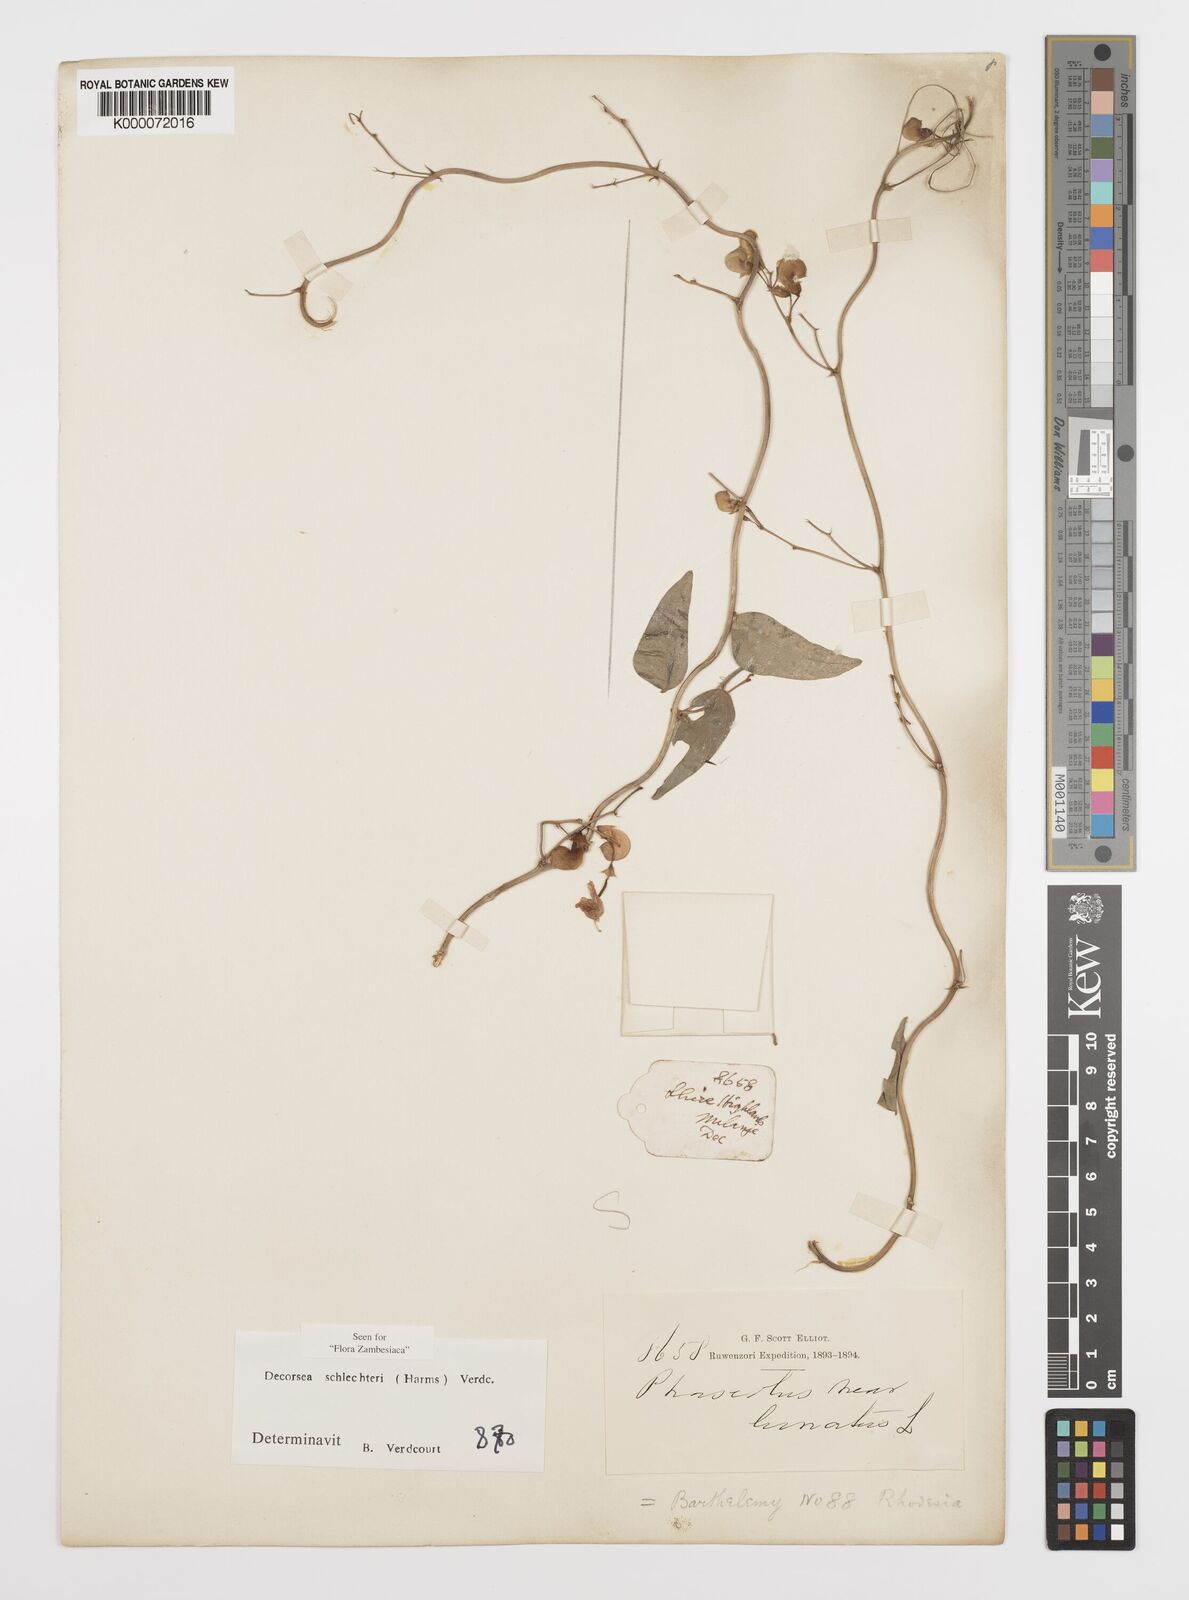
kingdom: Plantae
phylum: Tracheophyta
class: Magnoliopsida
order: Fabales
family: Fabaceae
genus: Decorsea
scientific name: Decorsea schlechteri
